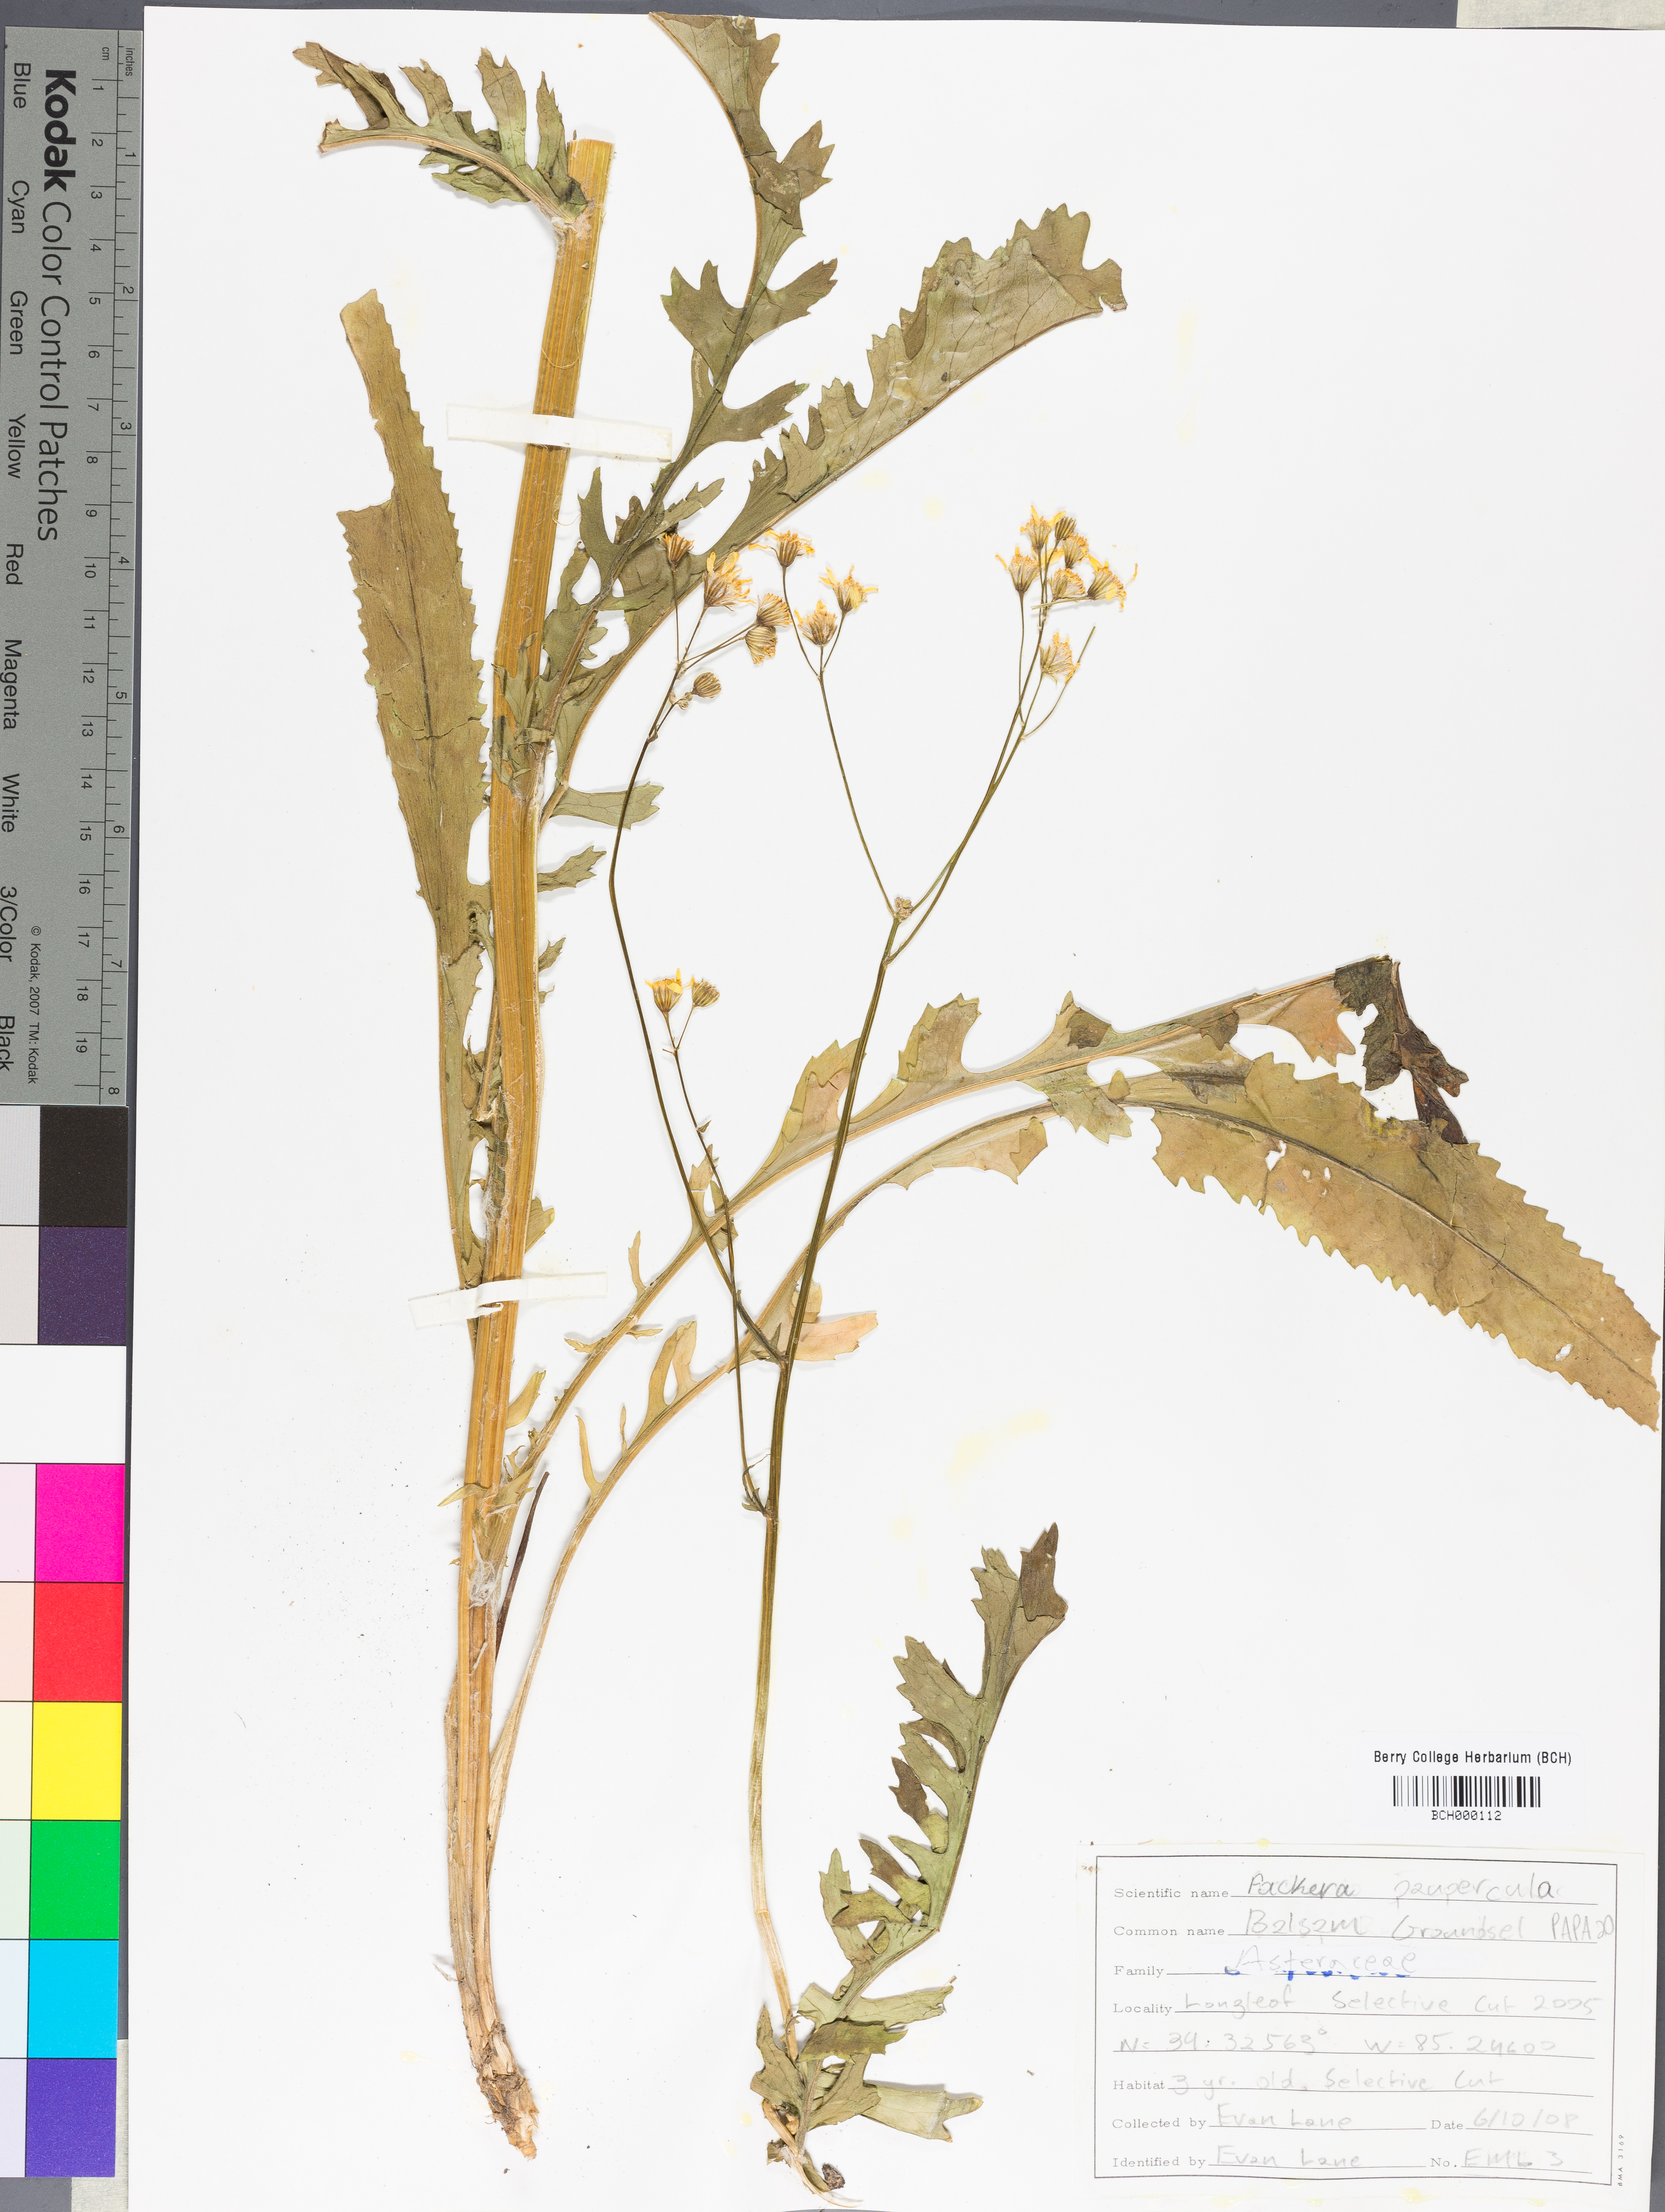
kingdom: Plantae
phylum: Tracheophyta
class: Magnoliopsida
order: Asterales
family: Asteraceae
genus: Packera
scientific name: Packera paupercula
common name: Balsam groundsel
